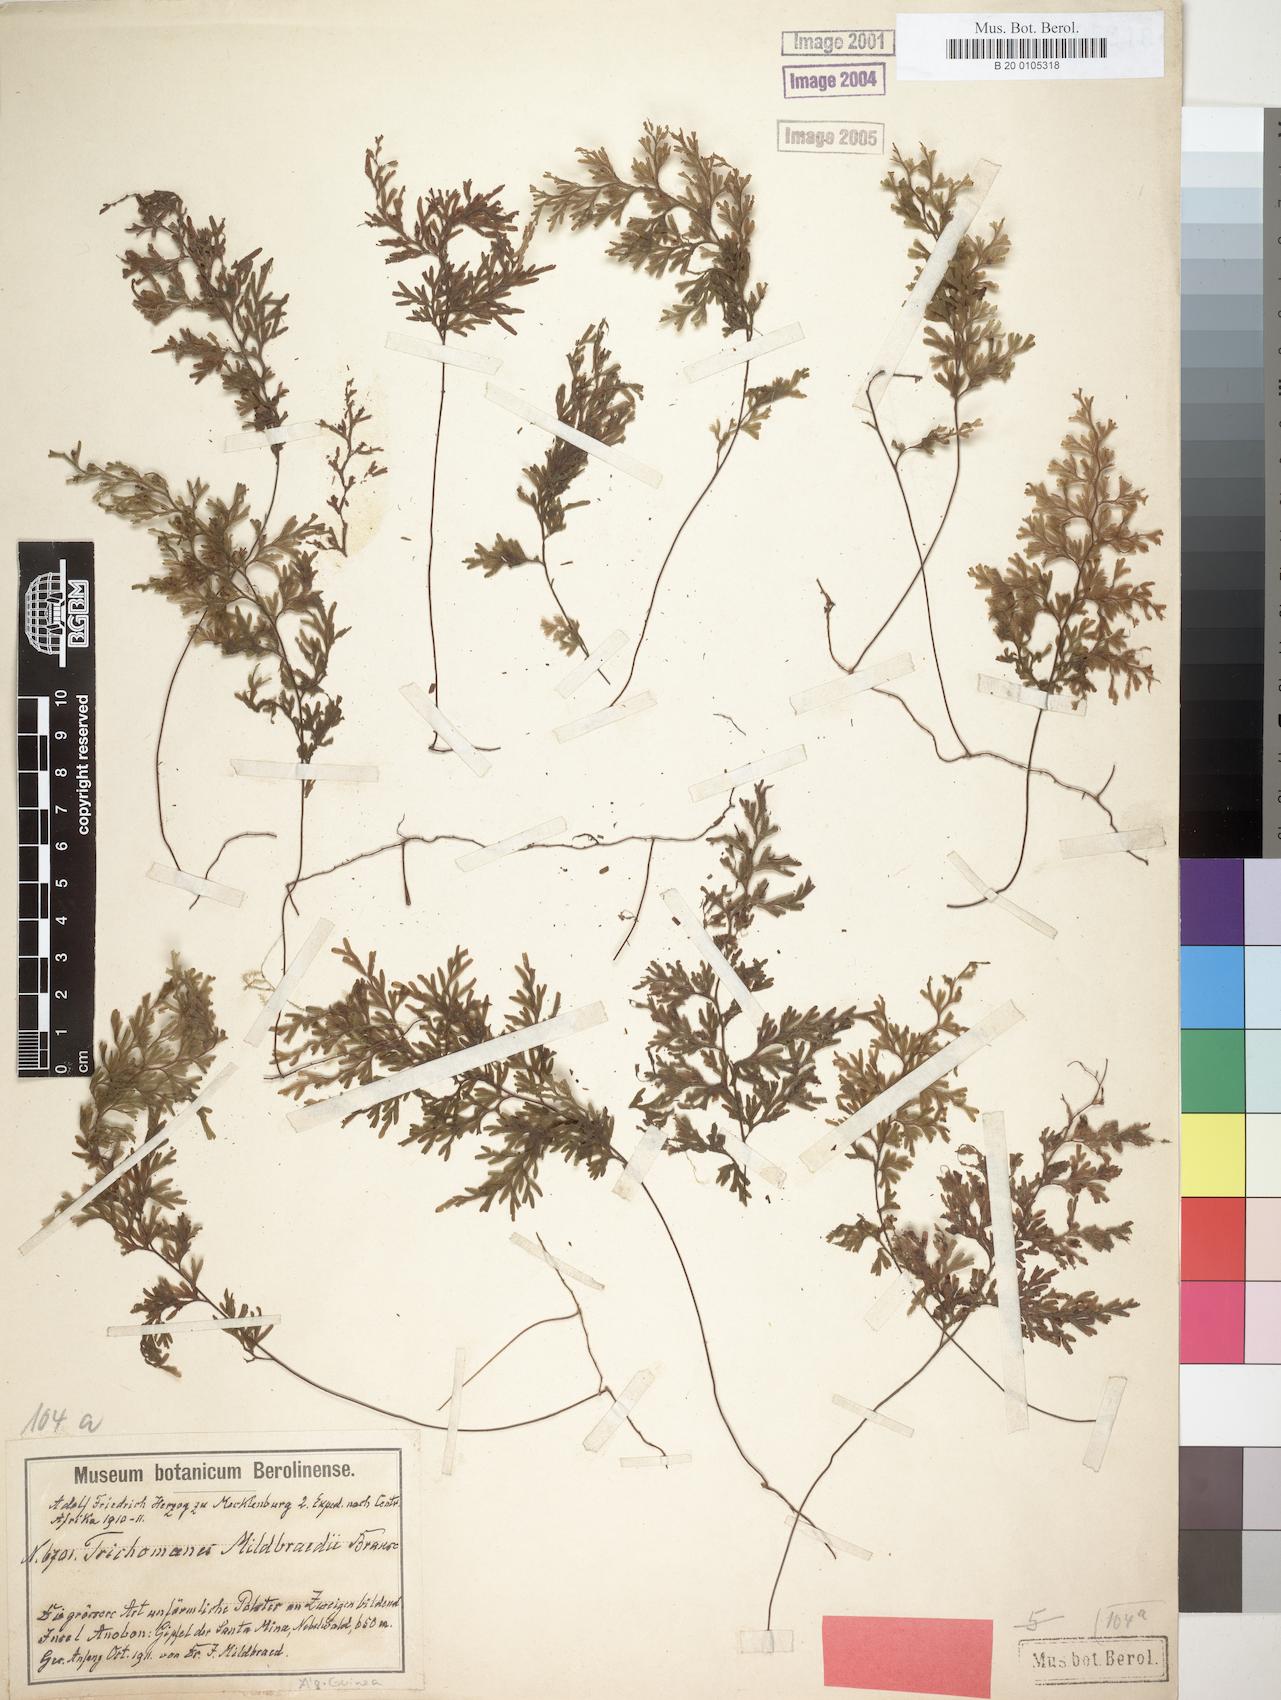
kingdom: Plantae
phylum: Tracheophyta
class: Polypodiopsida
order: Hymenophyllales
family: Hymenophyllaceae
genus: Hymenophyllum
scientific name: Hymenophyllum kuhnii
